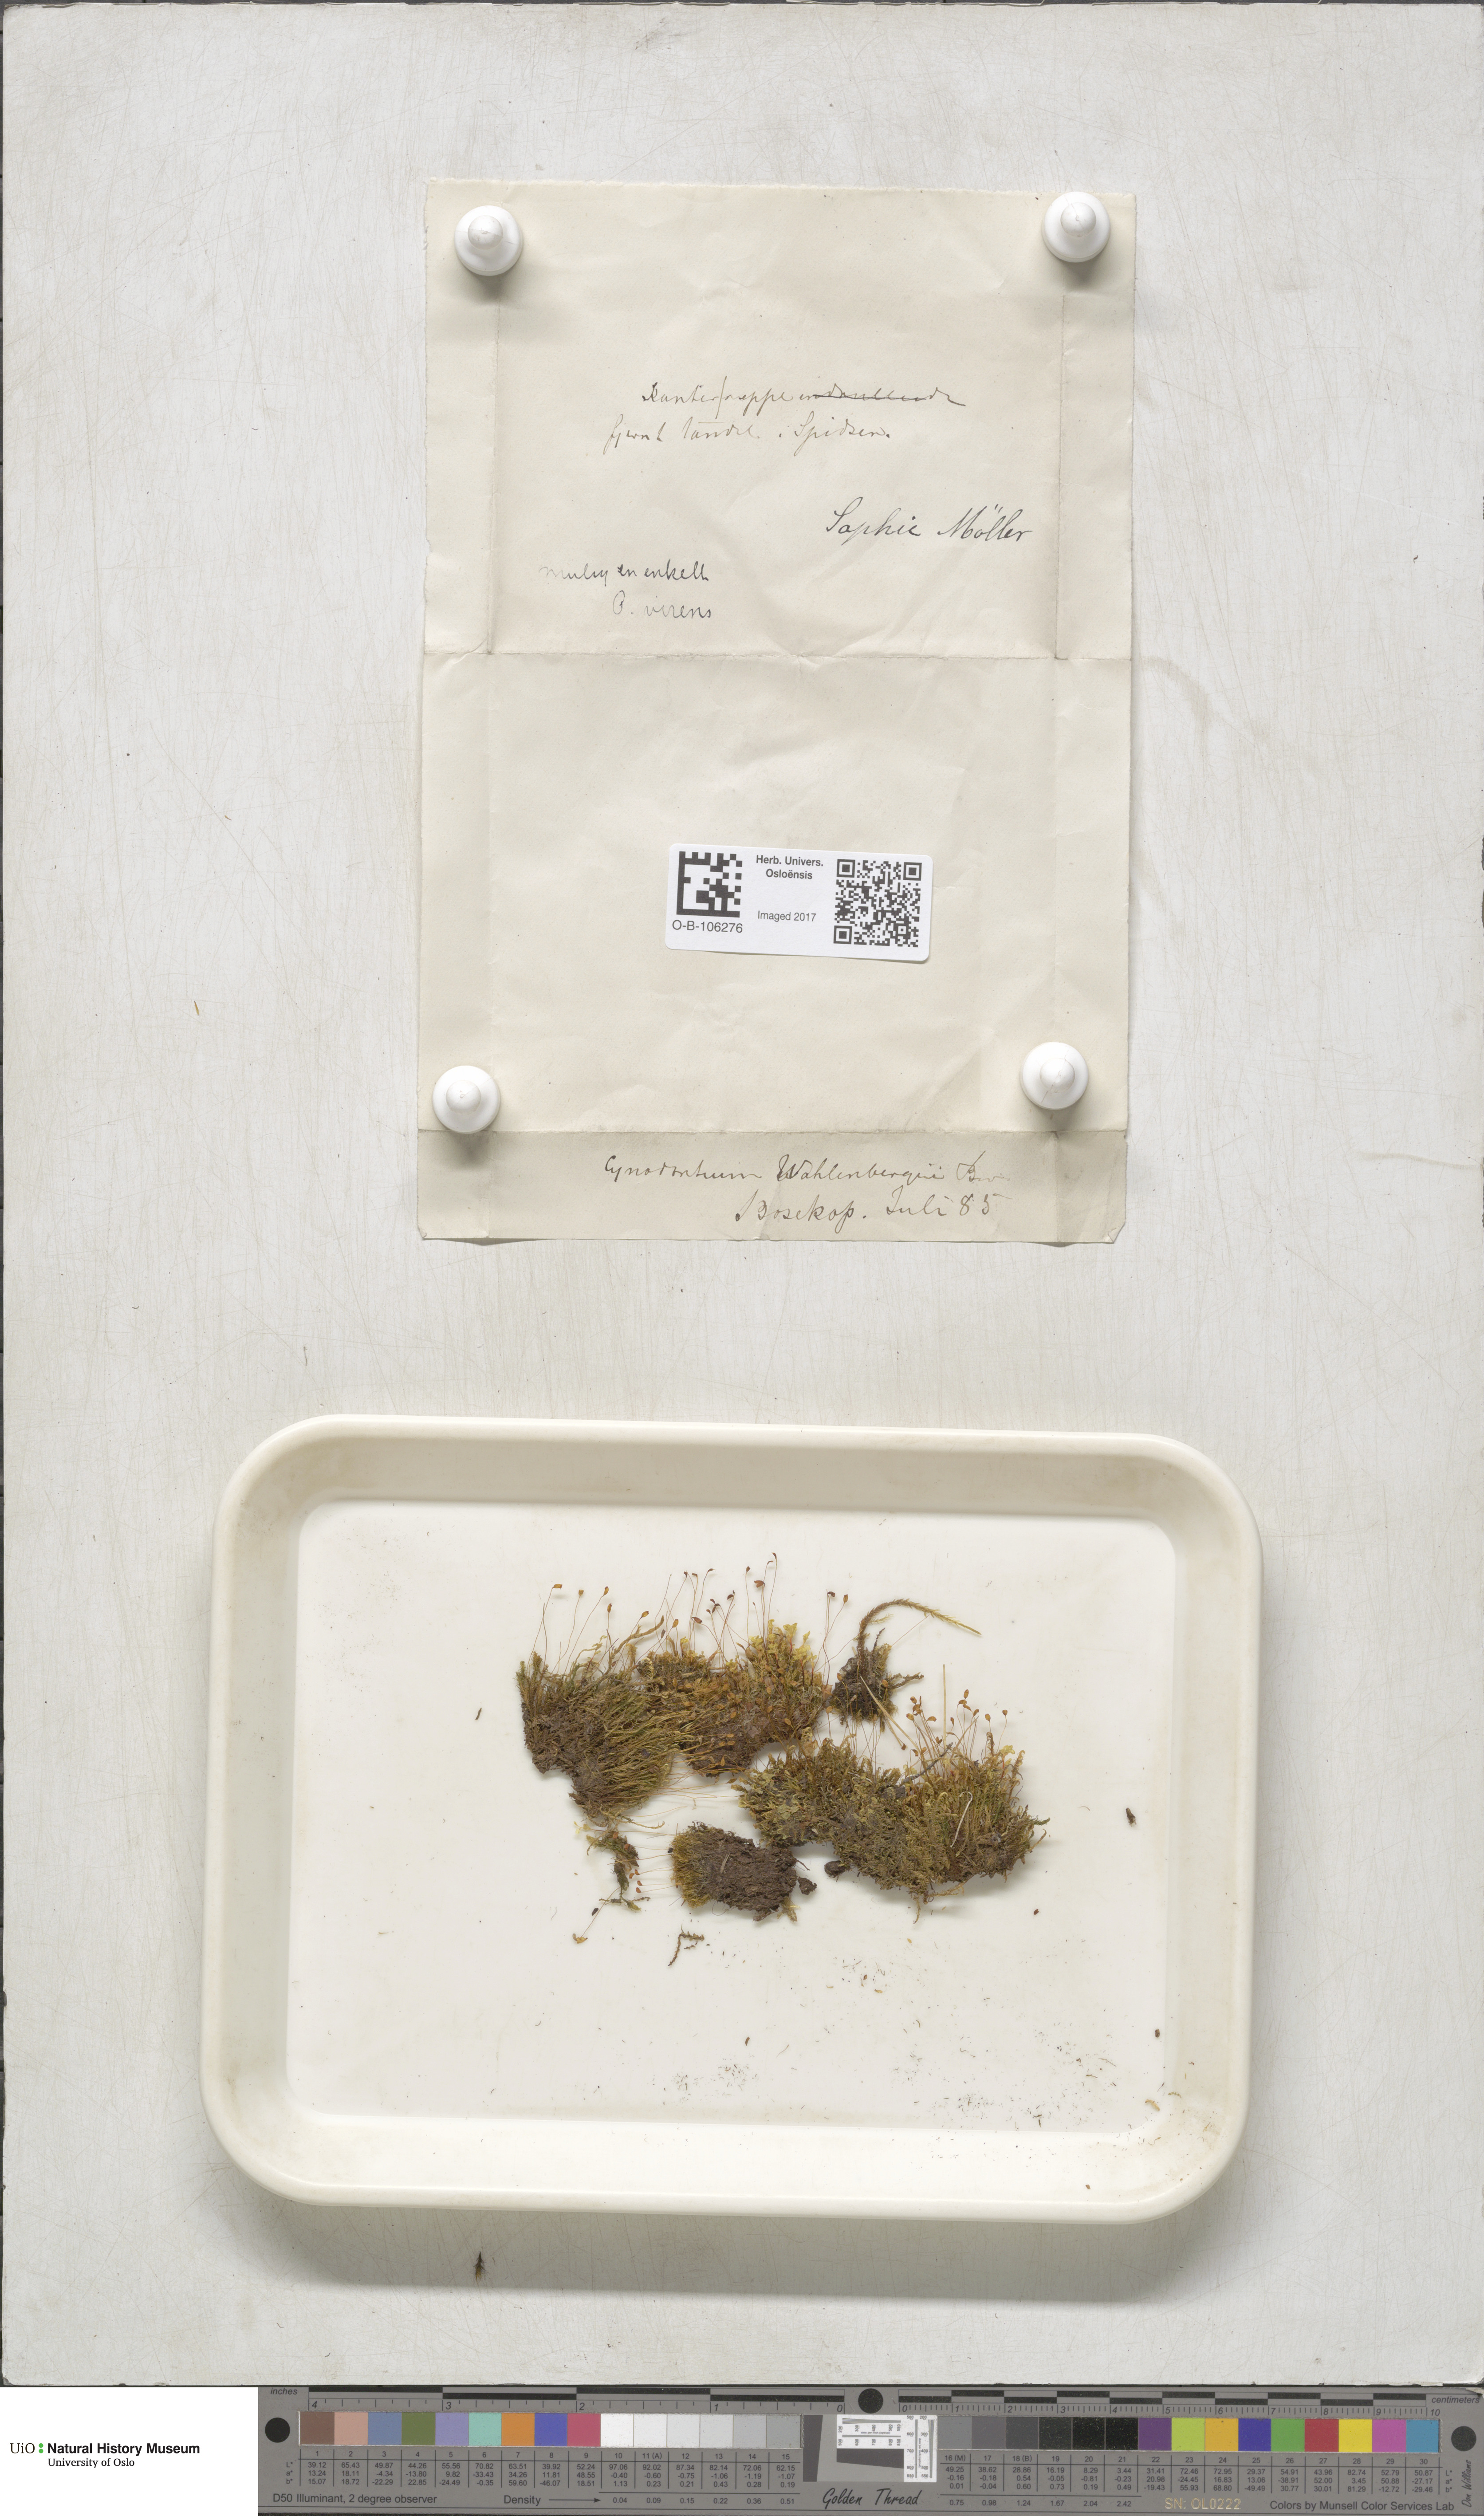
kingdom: Plantae
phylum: Bryophyta
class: Bryopsida
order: Dicranales
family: Rhabdoweisiaceae
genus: Brideliella
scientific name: Brideliella wahlenbergii
